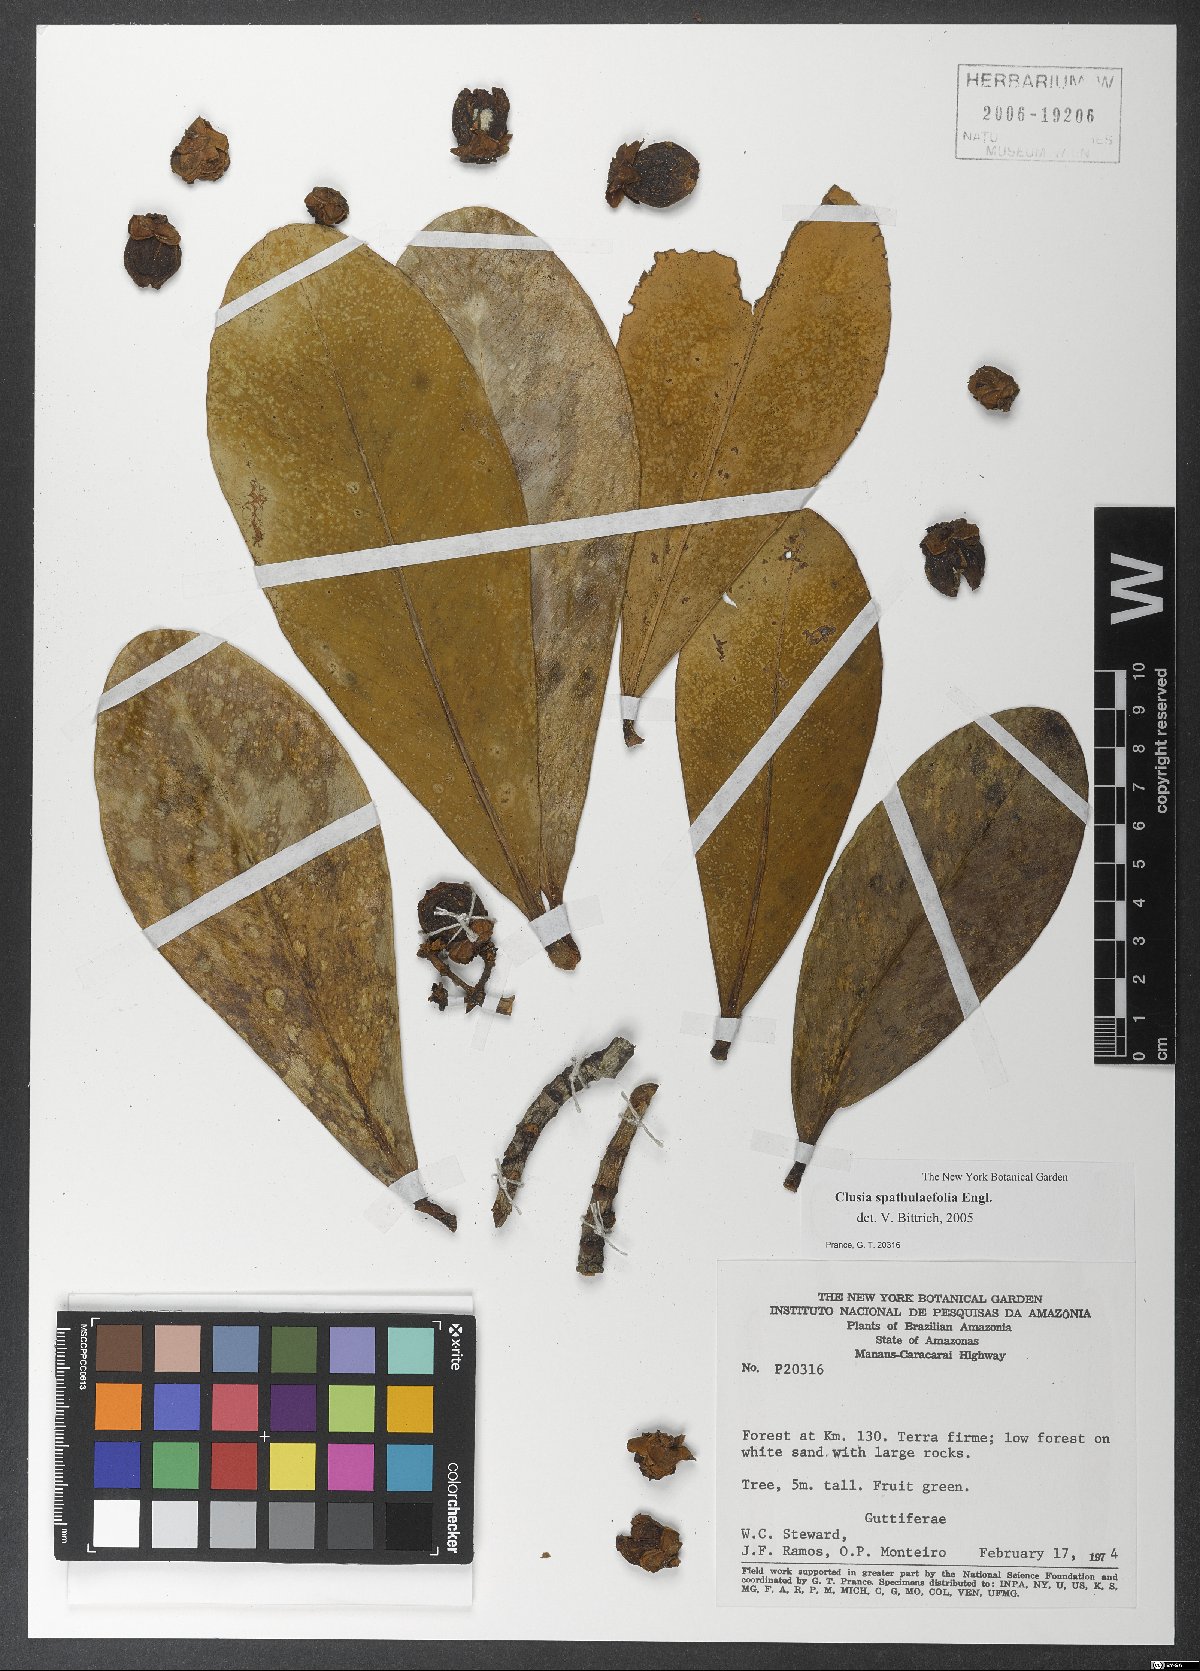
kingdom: Plantae
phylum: Tracheophyta
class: Magnoliopsida
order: Malpighiales
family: Clusiaceae
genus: Clusia
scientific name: Clusia spathulifolia
